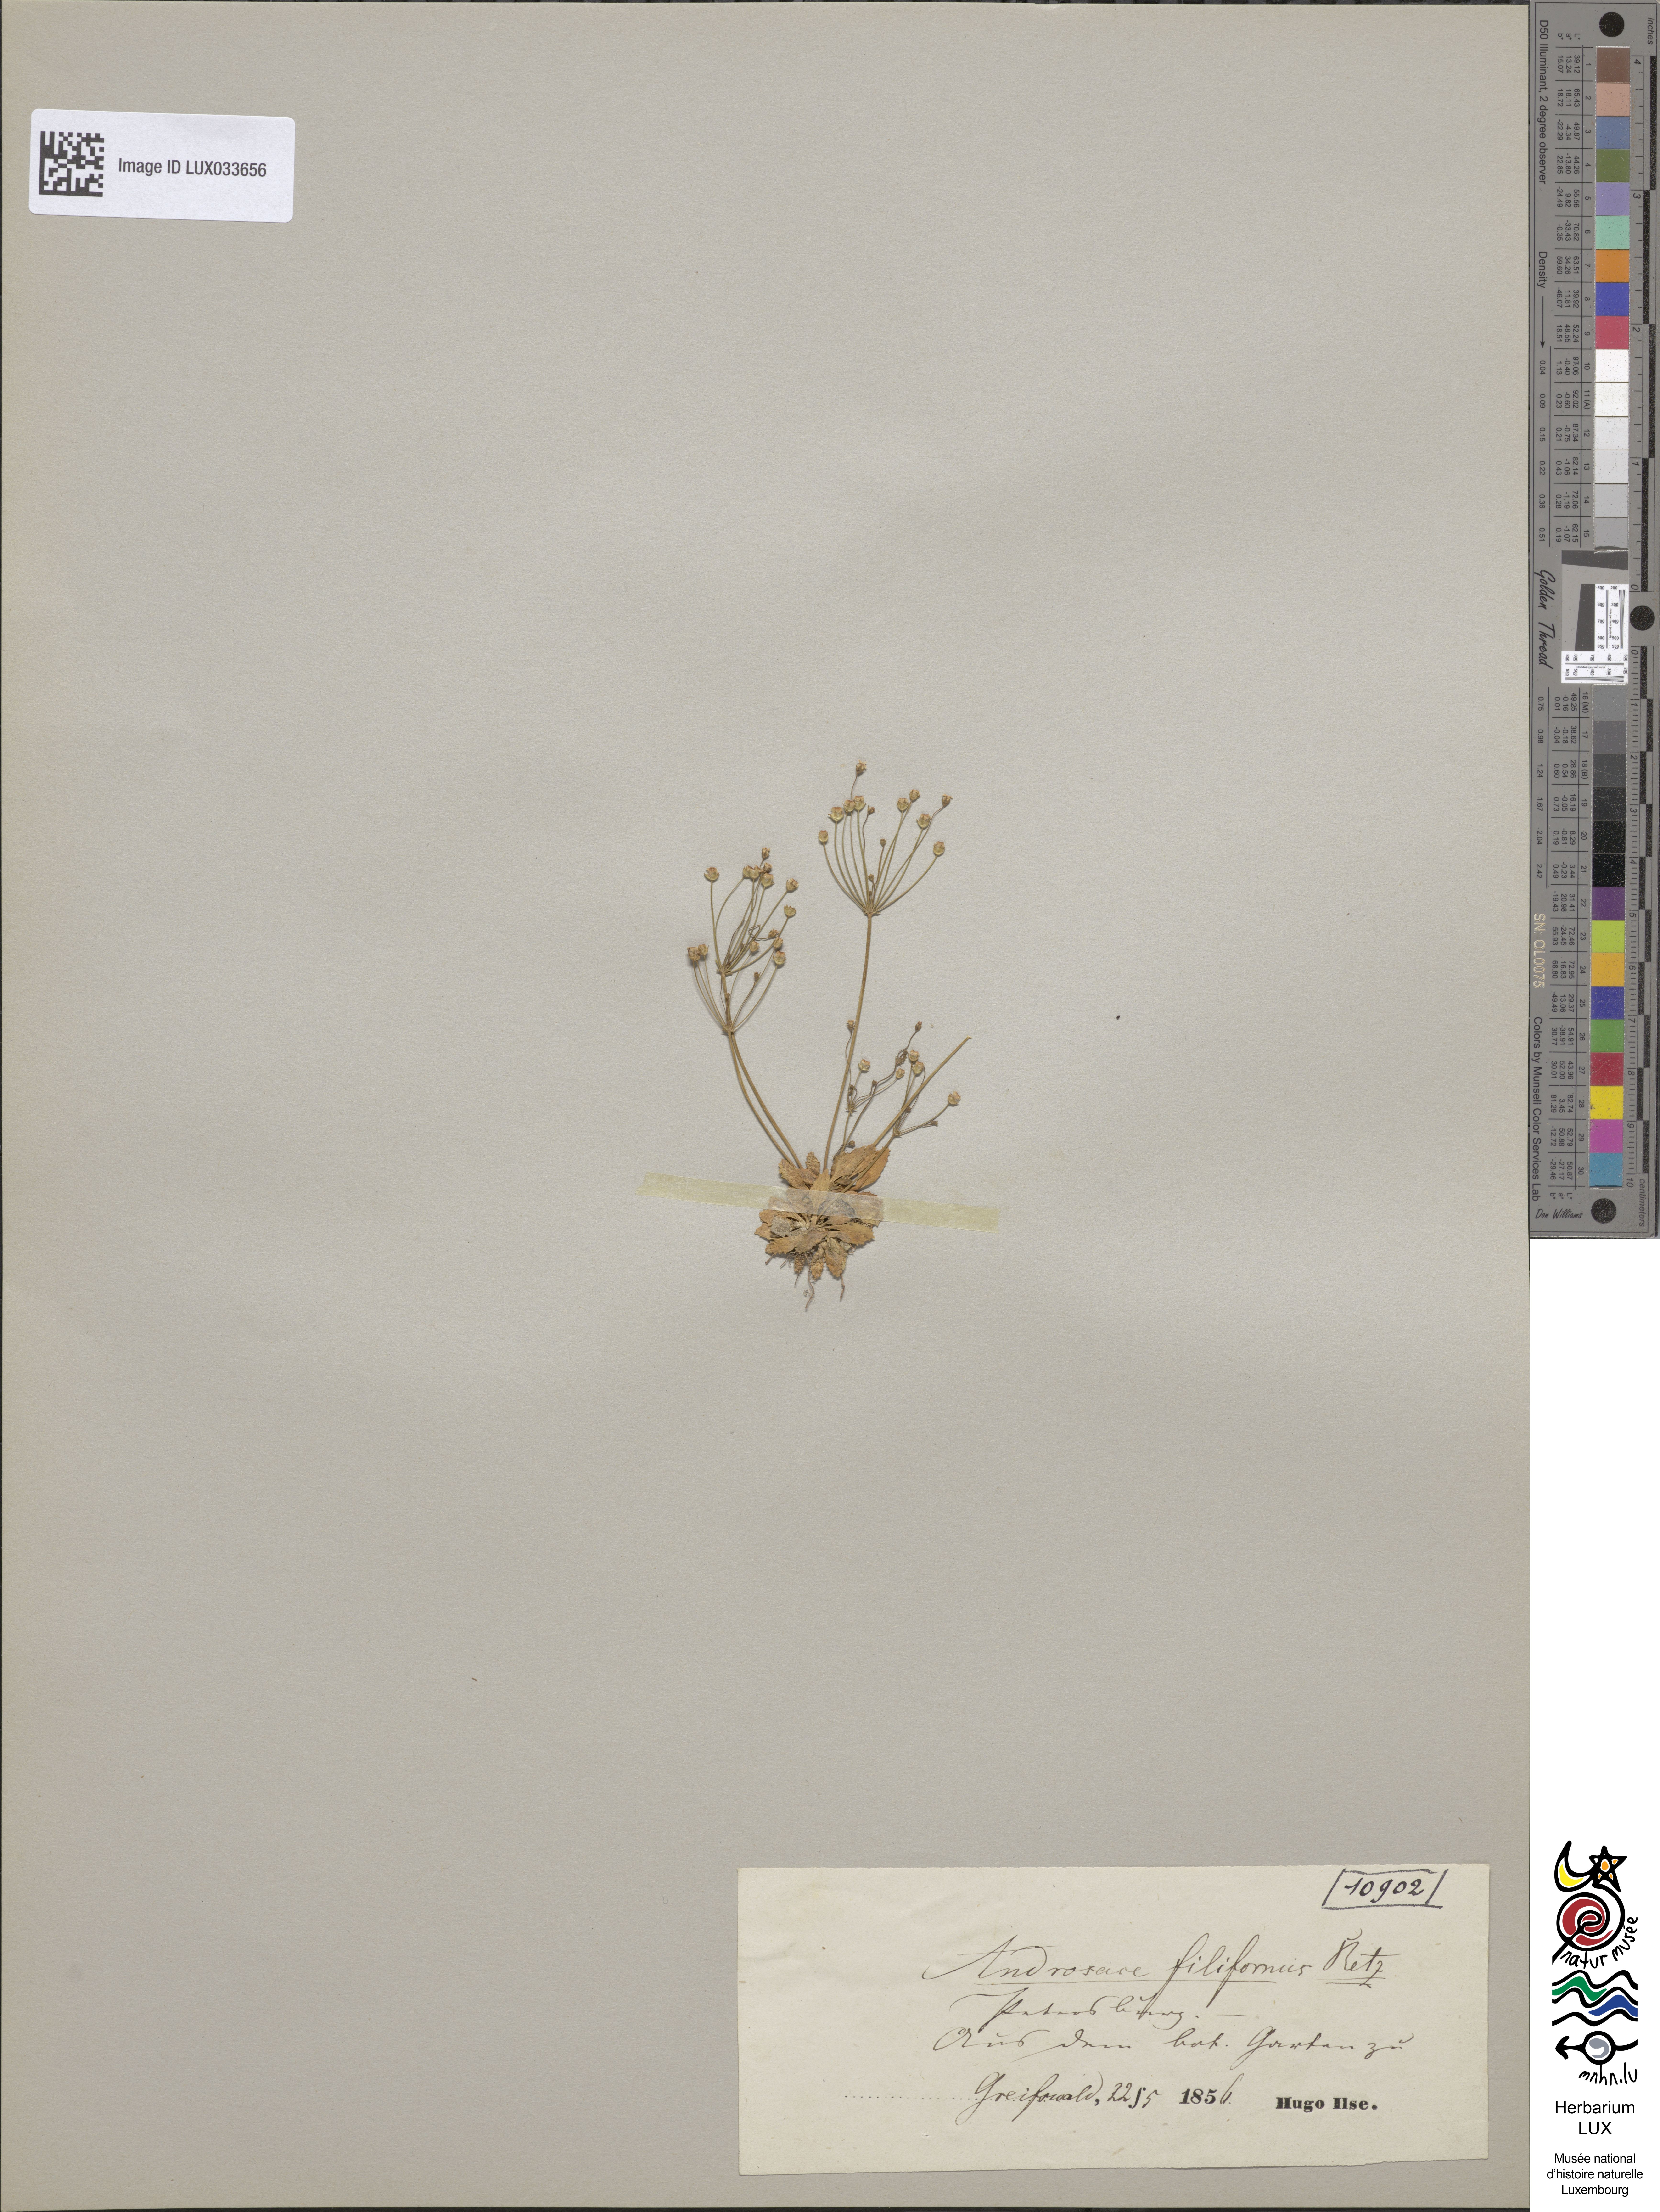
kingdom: Plantae
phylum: Tracheophyta
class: Magnoliopsida
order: Ericales
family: Primulaceae
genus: Androsace
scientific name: Androsace filiformis
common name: Filiform rock jasmine
